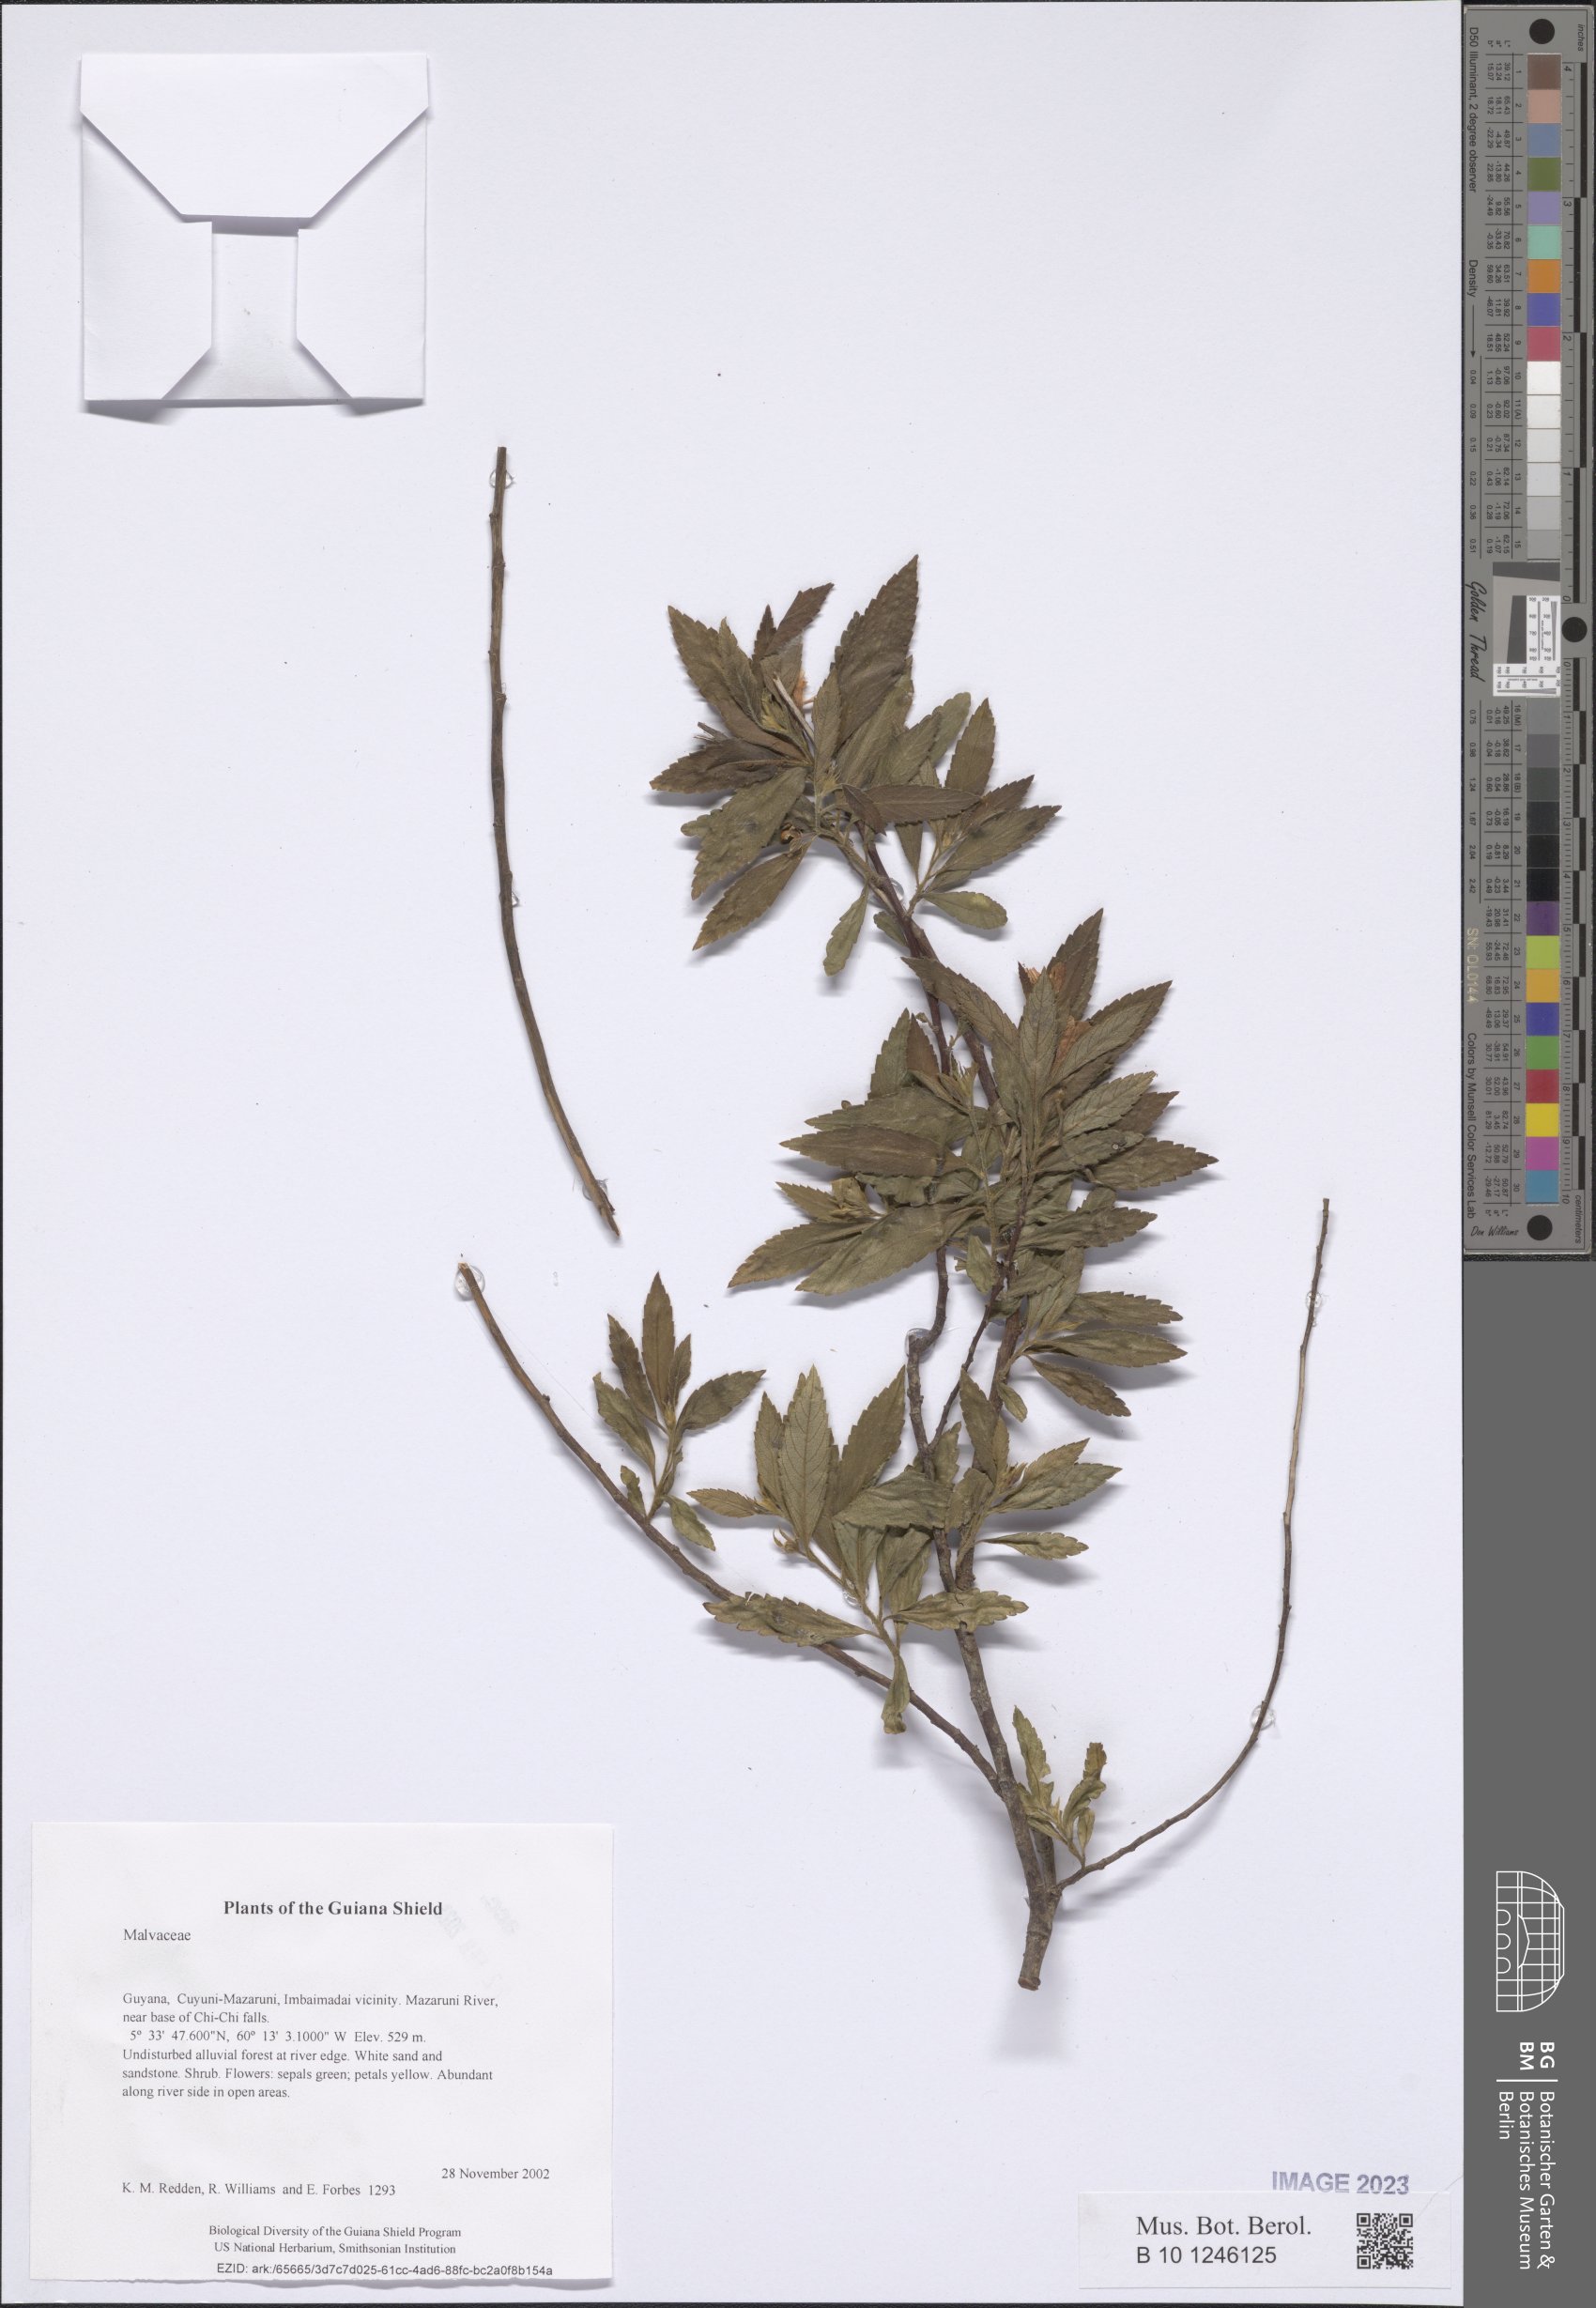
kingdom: Plantae
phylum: Tracheophyta
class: Magnoliopsida
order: Malvales
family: Malvaceae
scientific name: Malvaceae
